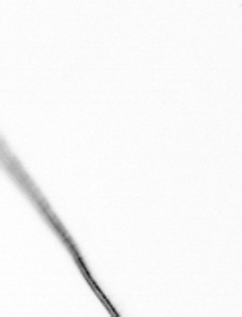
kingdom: Chromista
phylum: Ochrophyta
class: Bacillariophyceae
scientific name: Bacillariophyceae
